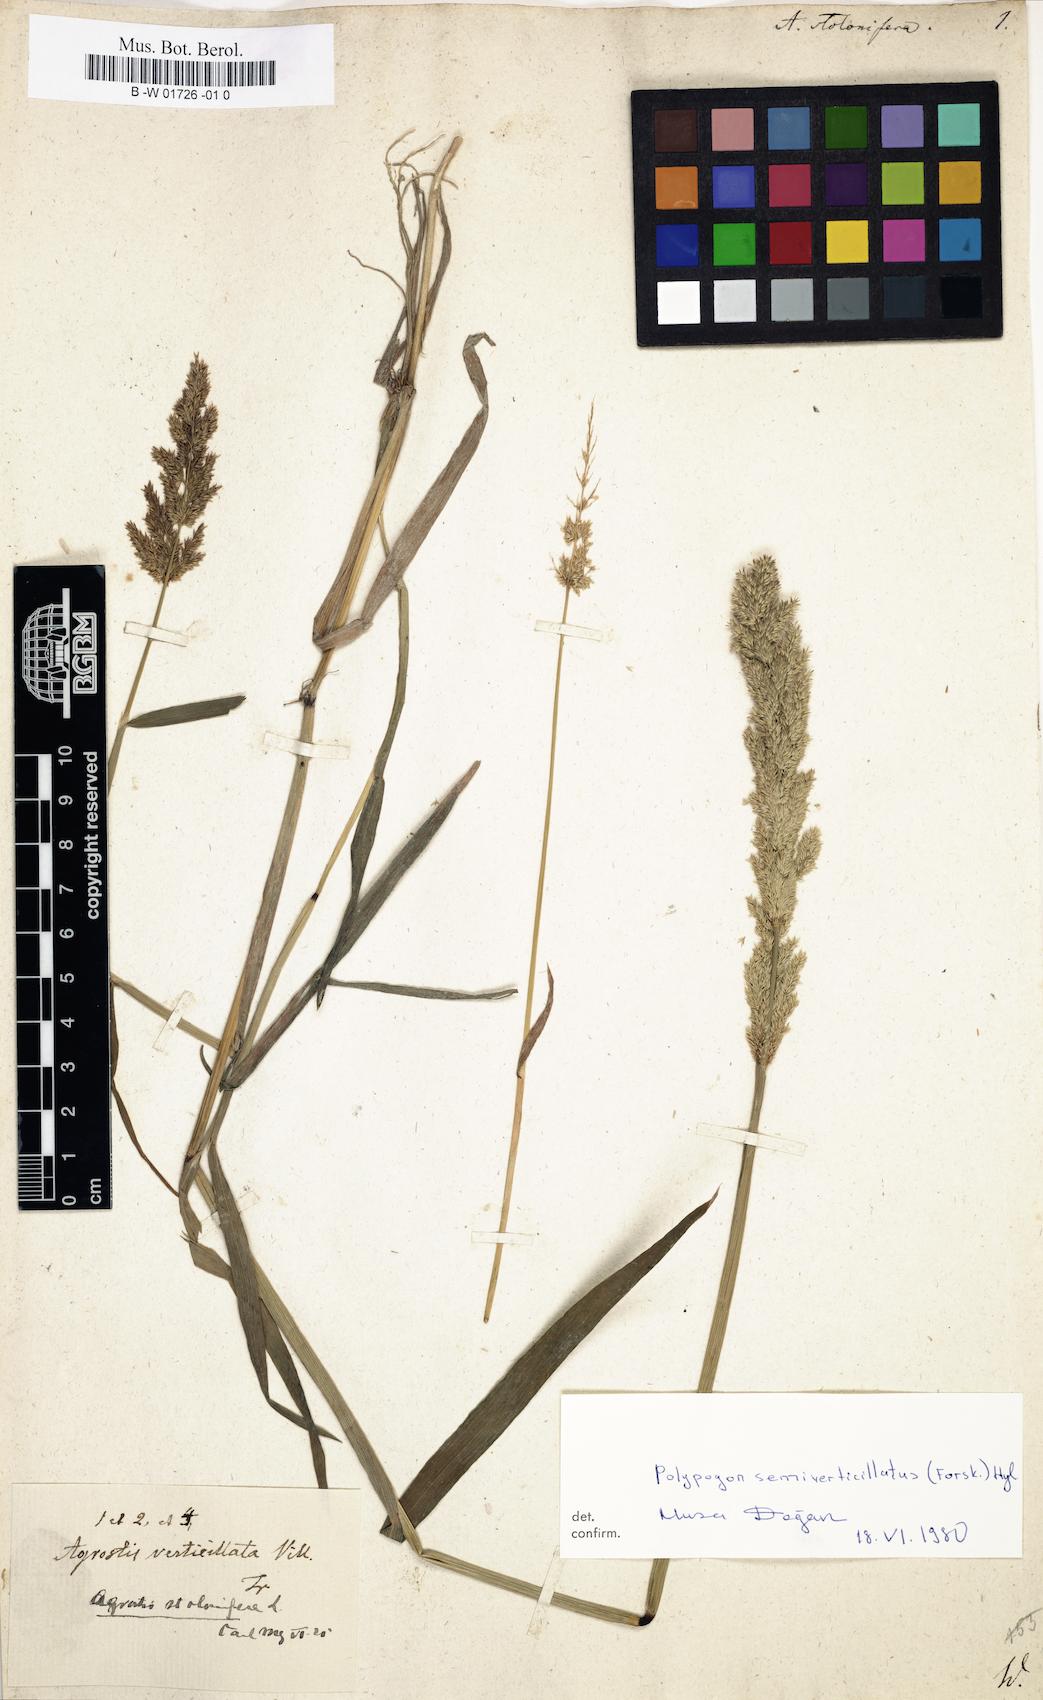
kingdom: Plantae
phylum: Tracheophyta
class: Liliopsida
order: Poales
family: Poaceae
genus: Agrostis
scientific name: Agrostis stolonifera
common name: Creeping bentgrass
